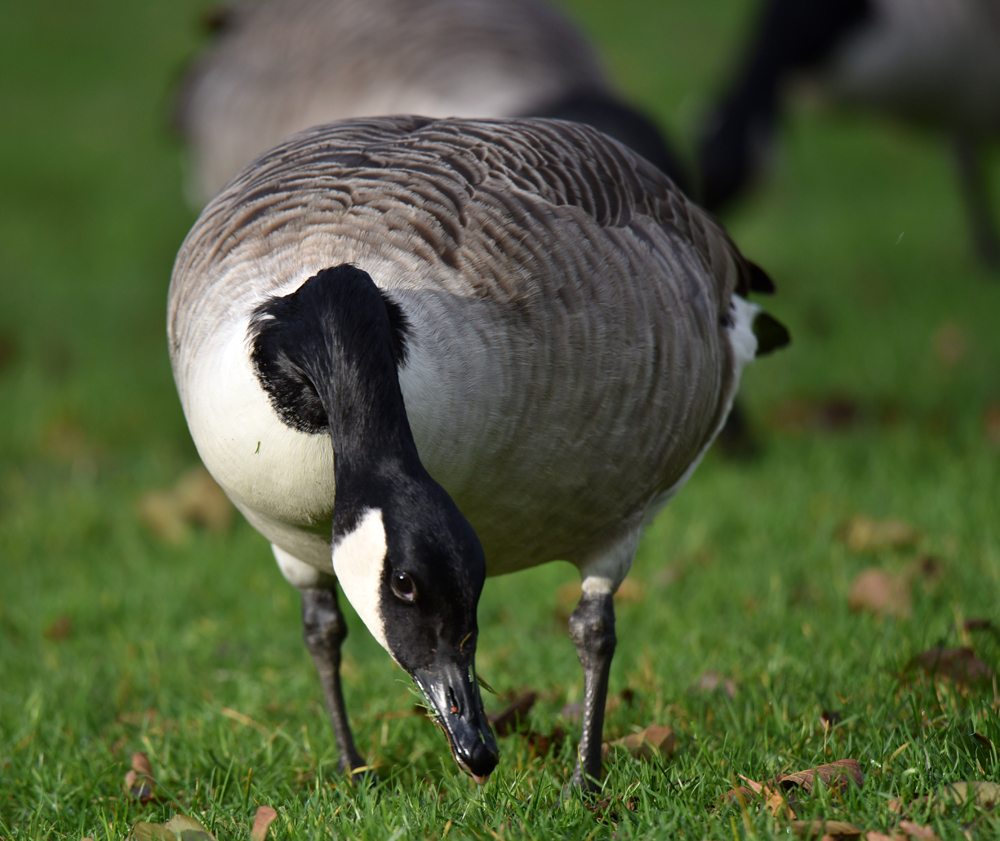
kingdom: Animalia
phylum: Chordata
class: Aves
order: Anseriformes
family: Anatidae
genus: Branta
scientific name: Branta canadensis
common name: Canada goose
